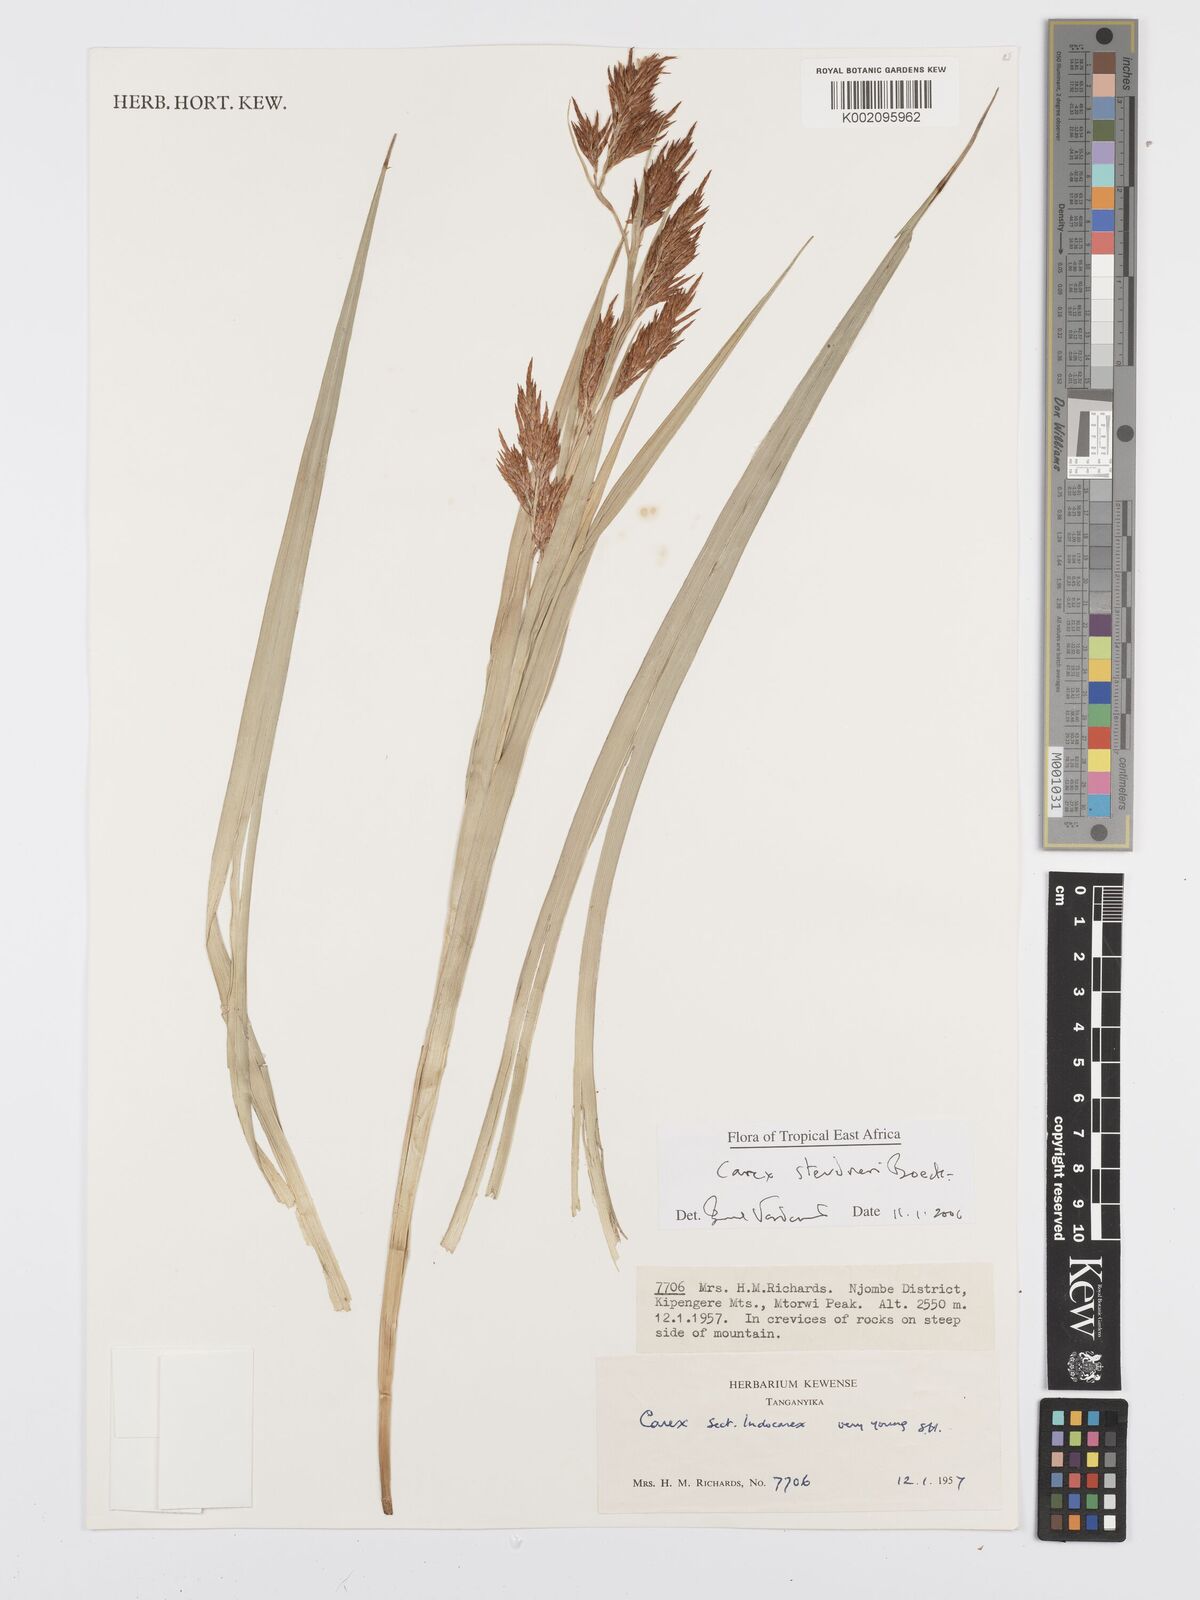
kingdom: Plantae
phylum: Tracheophyta
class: Liliopsida
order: Poales
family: Cyperaceae
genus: Carex
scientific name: Carex steudneri
